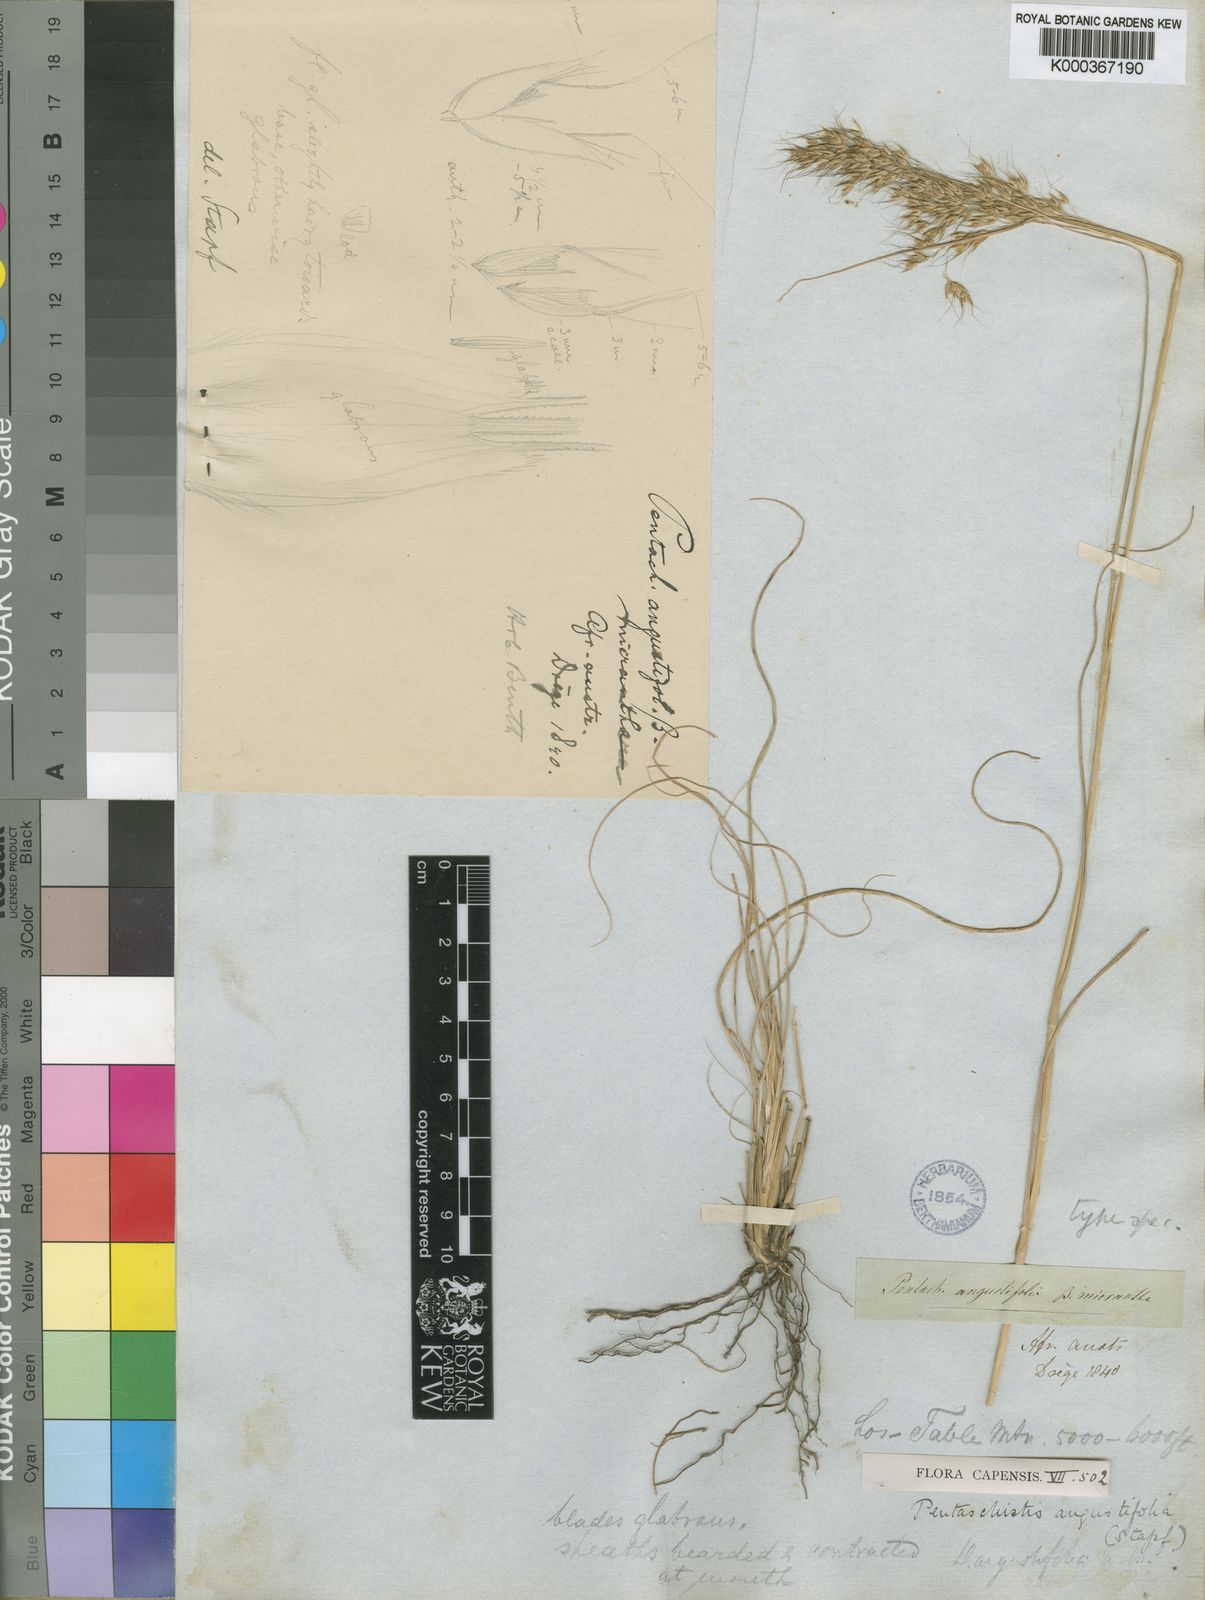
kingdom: Plantae
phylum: Tracheophyta
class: Liliopsida
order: Poales
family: Poaceae
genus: Pentameris
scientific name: Pentameris pallida
